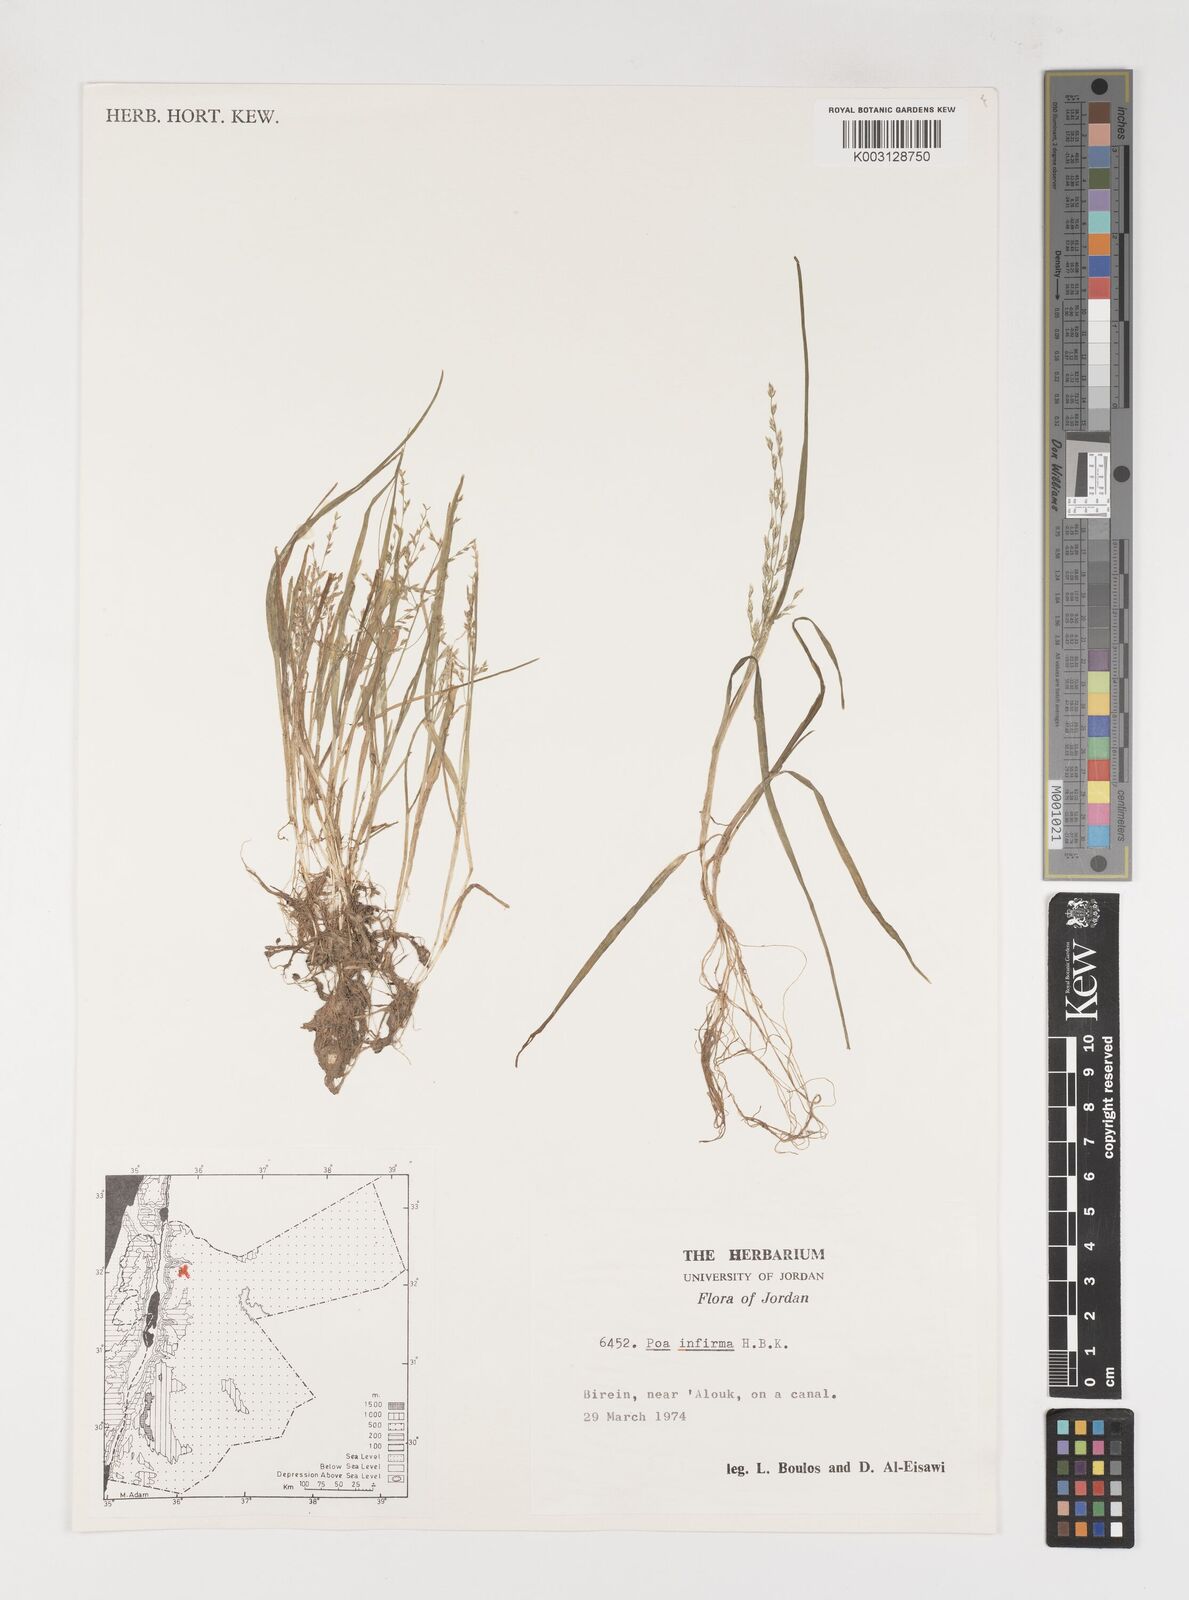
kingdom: Plantae
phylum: Tracheophyta
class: Liliopsida
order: Poales
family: Poaceae
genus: Poa
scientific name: Poa infirma
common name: Weak bluegrass
